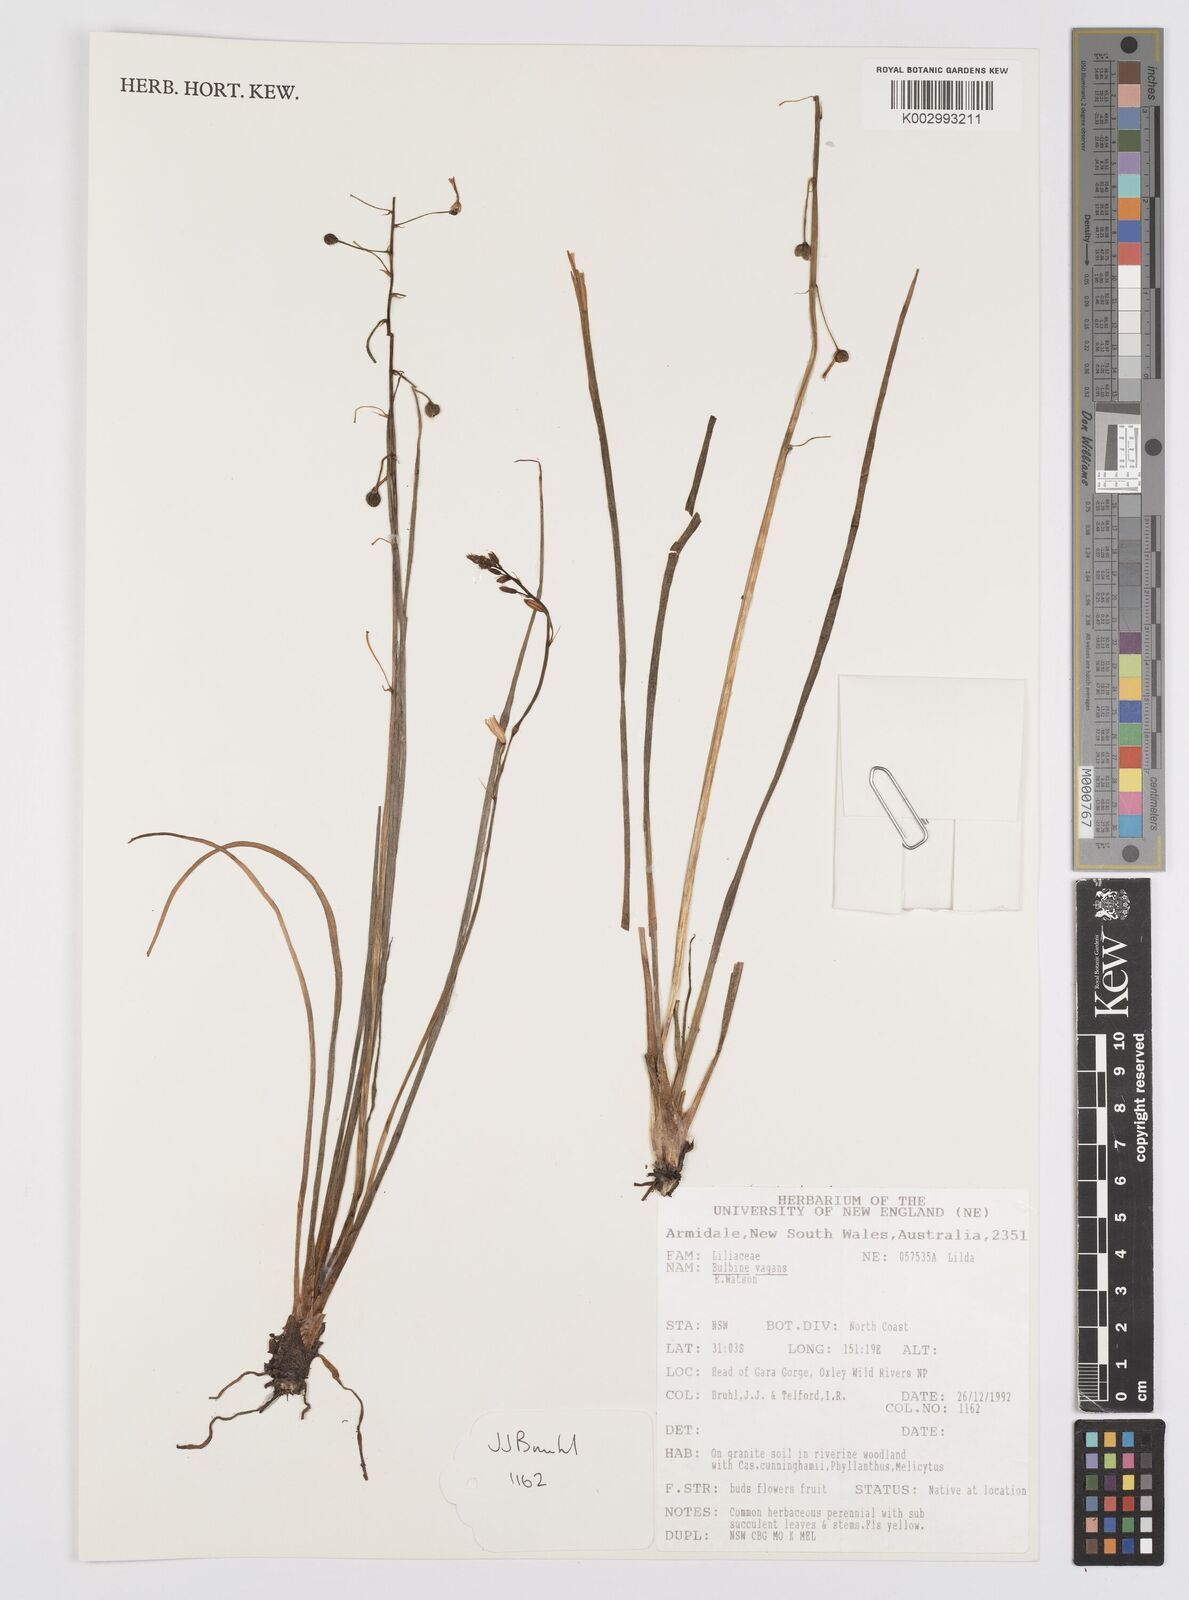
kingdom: Plantae
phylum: Tracheophyta
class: Liliopsida
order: Asparagales
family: Asphodelaceae
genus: Bulbine
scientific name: Bulbine vagans
